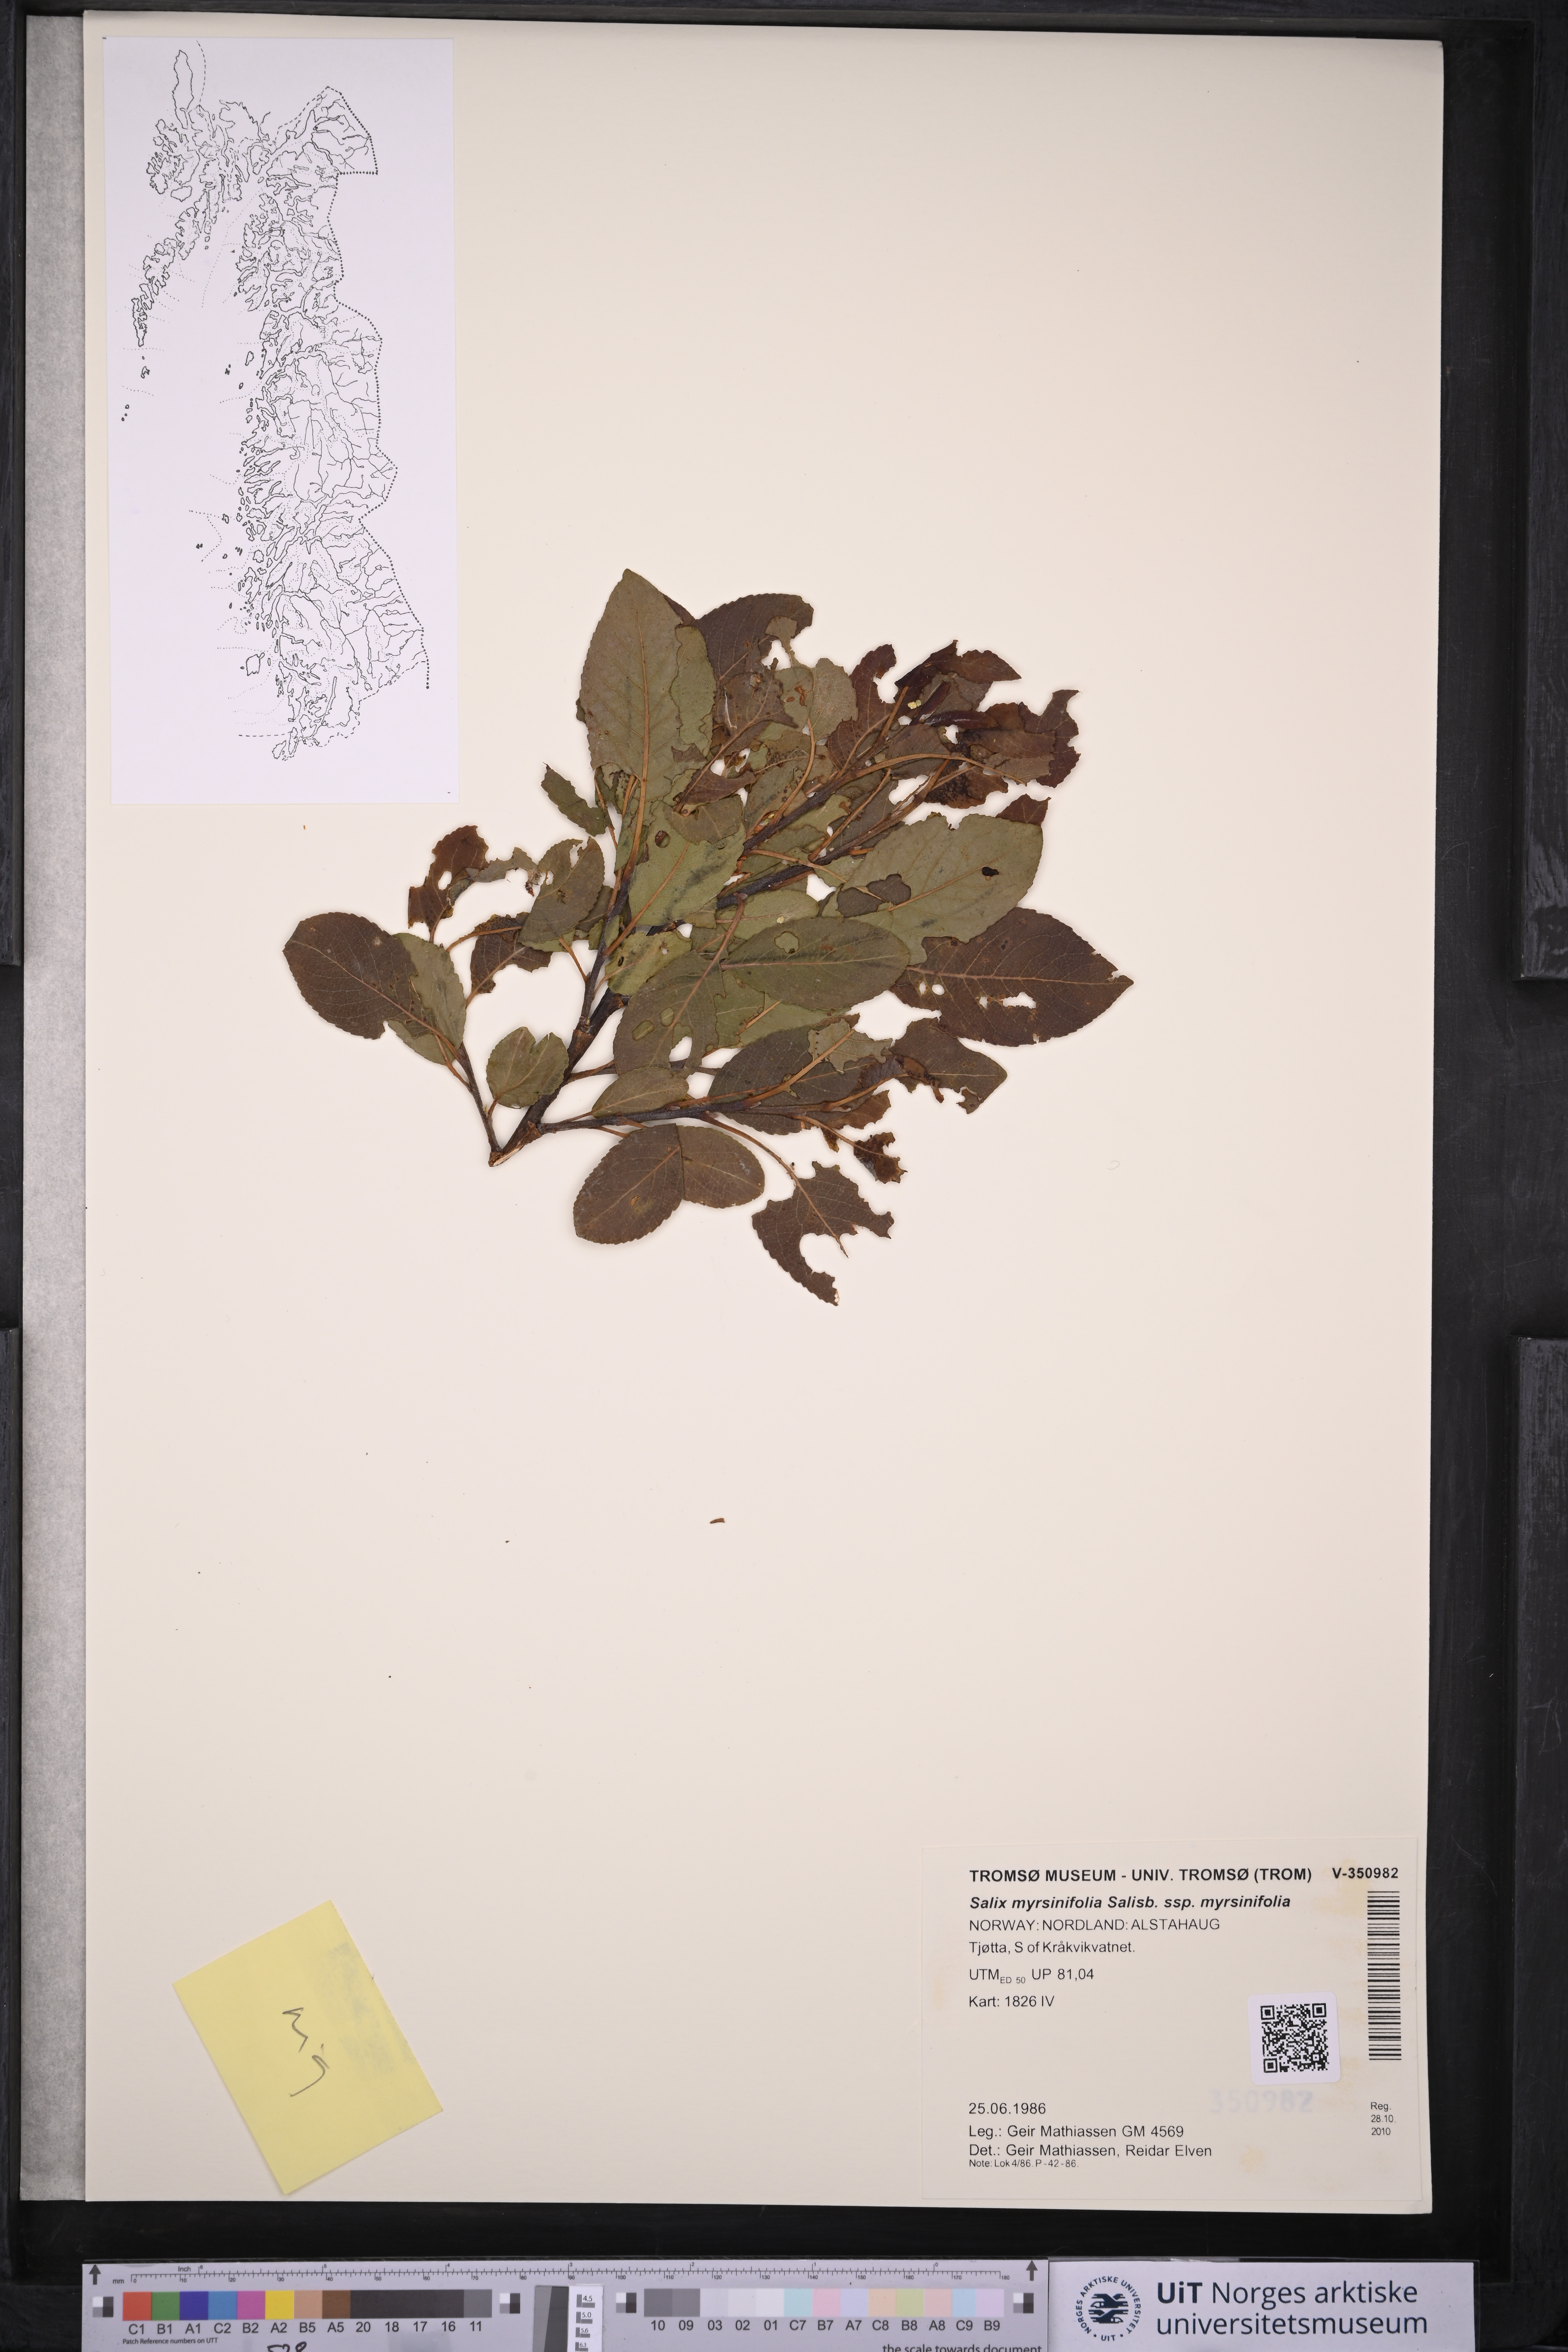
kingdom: Plantae
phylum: Tracheophyta
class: Magnoliopsida
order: Malpighiales
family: Salicaceae
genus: Salix
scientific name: Salix myrsinifolia
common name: Dark-leaved willow
